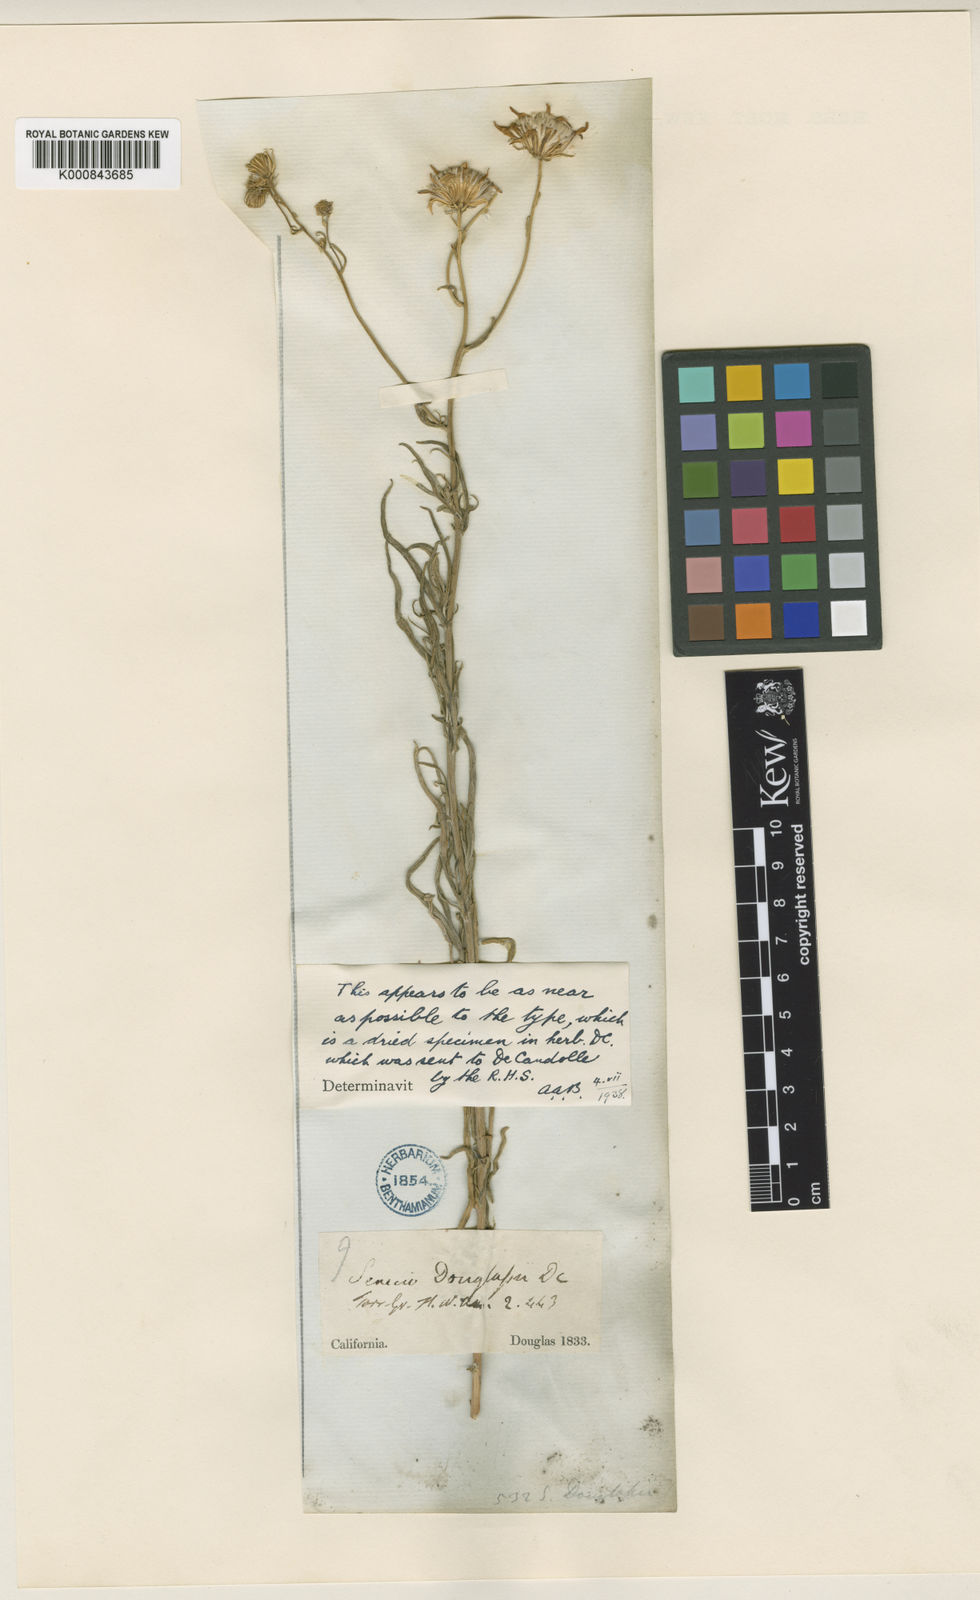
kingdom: Plantae
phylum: Tracheophyta
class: Magnoliopsida
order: Asterales
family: Asteraceae
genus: Senecio
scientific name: Senecio flaccidus
